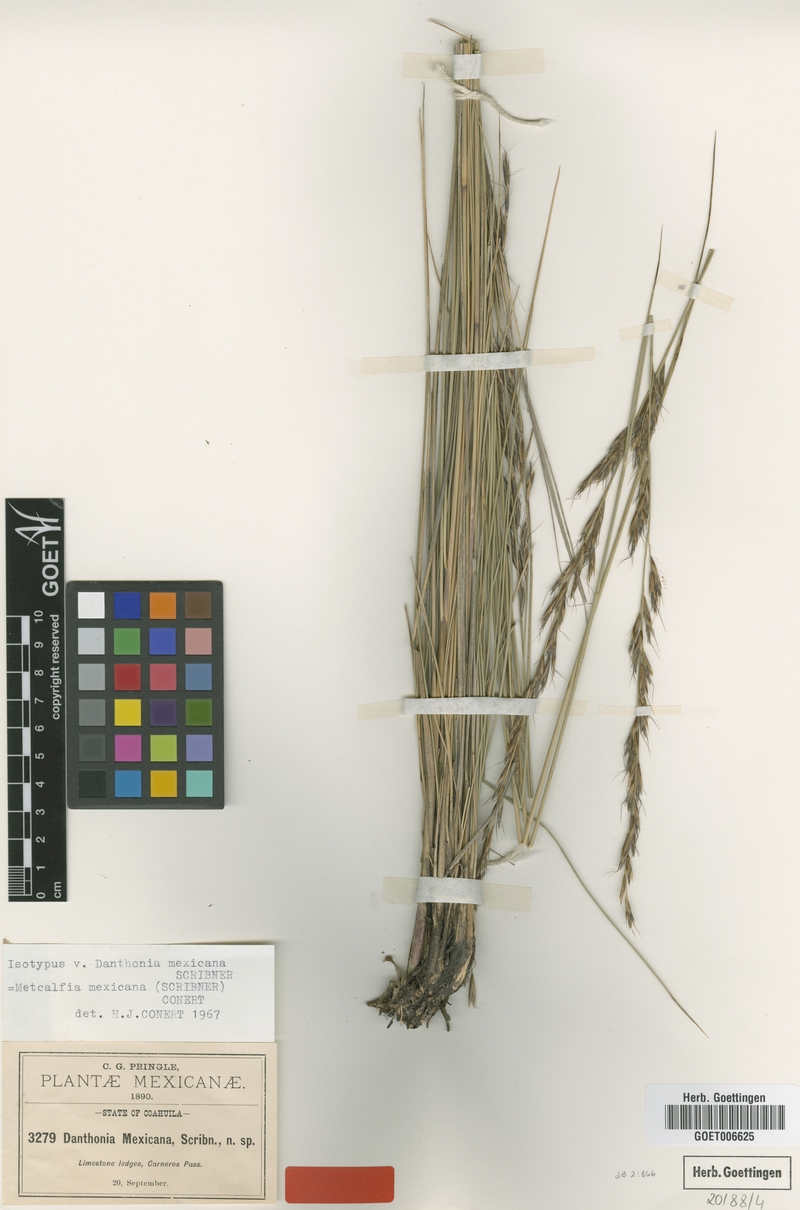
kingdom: Plantae
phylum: Tracheophyta
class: Liliopsida
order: Poales
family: Poaceae
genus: Metcalfia
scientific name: Metcalfia mexicana
